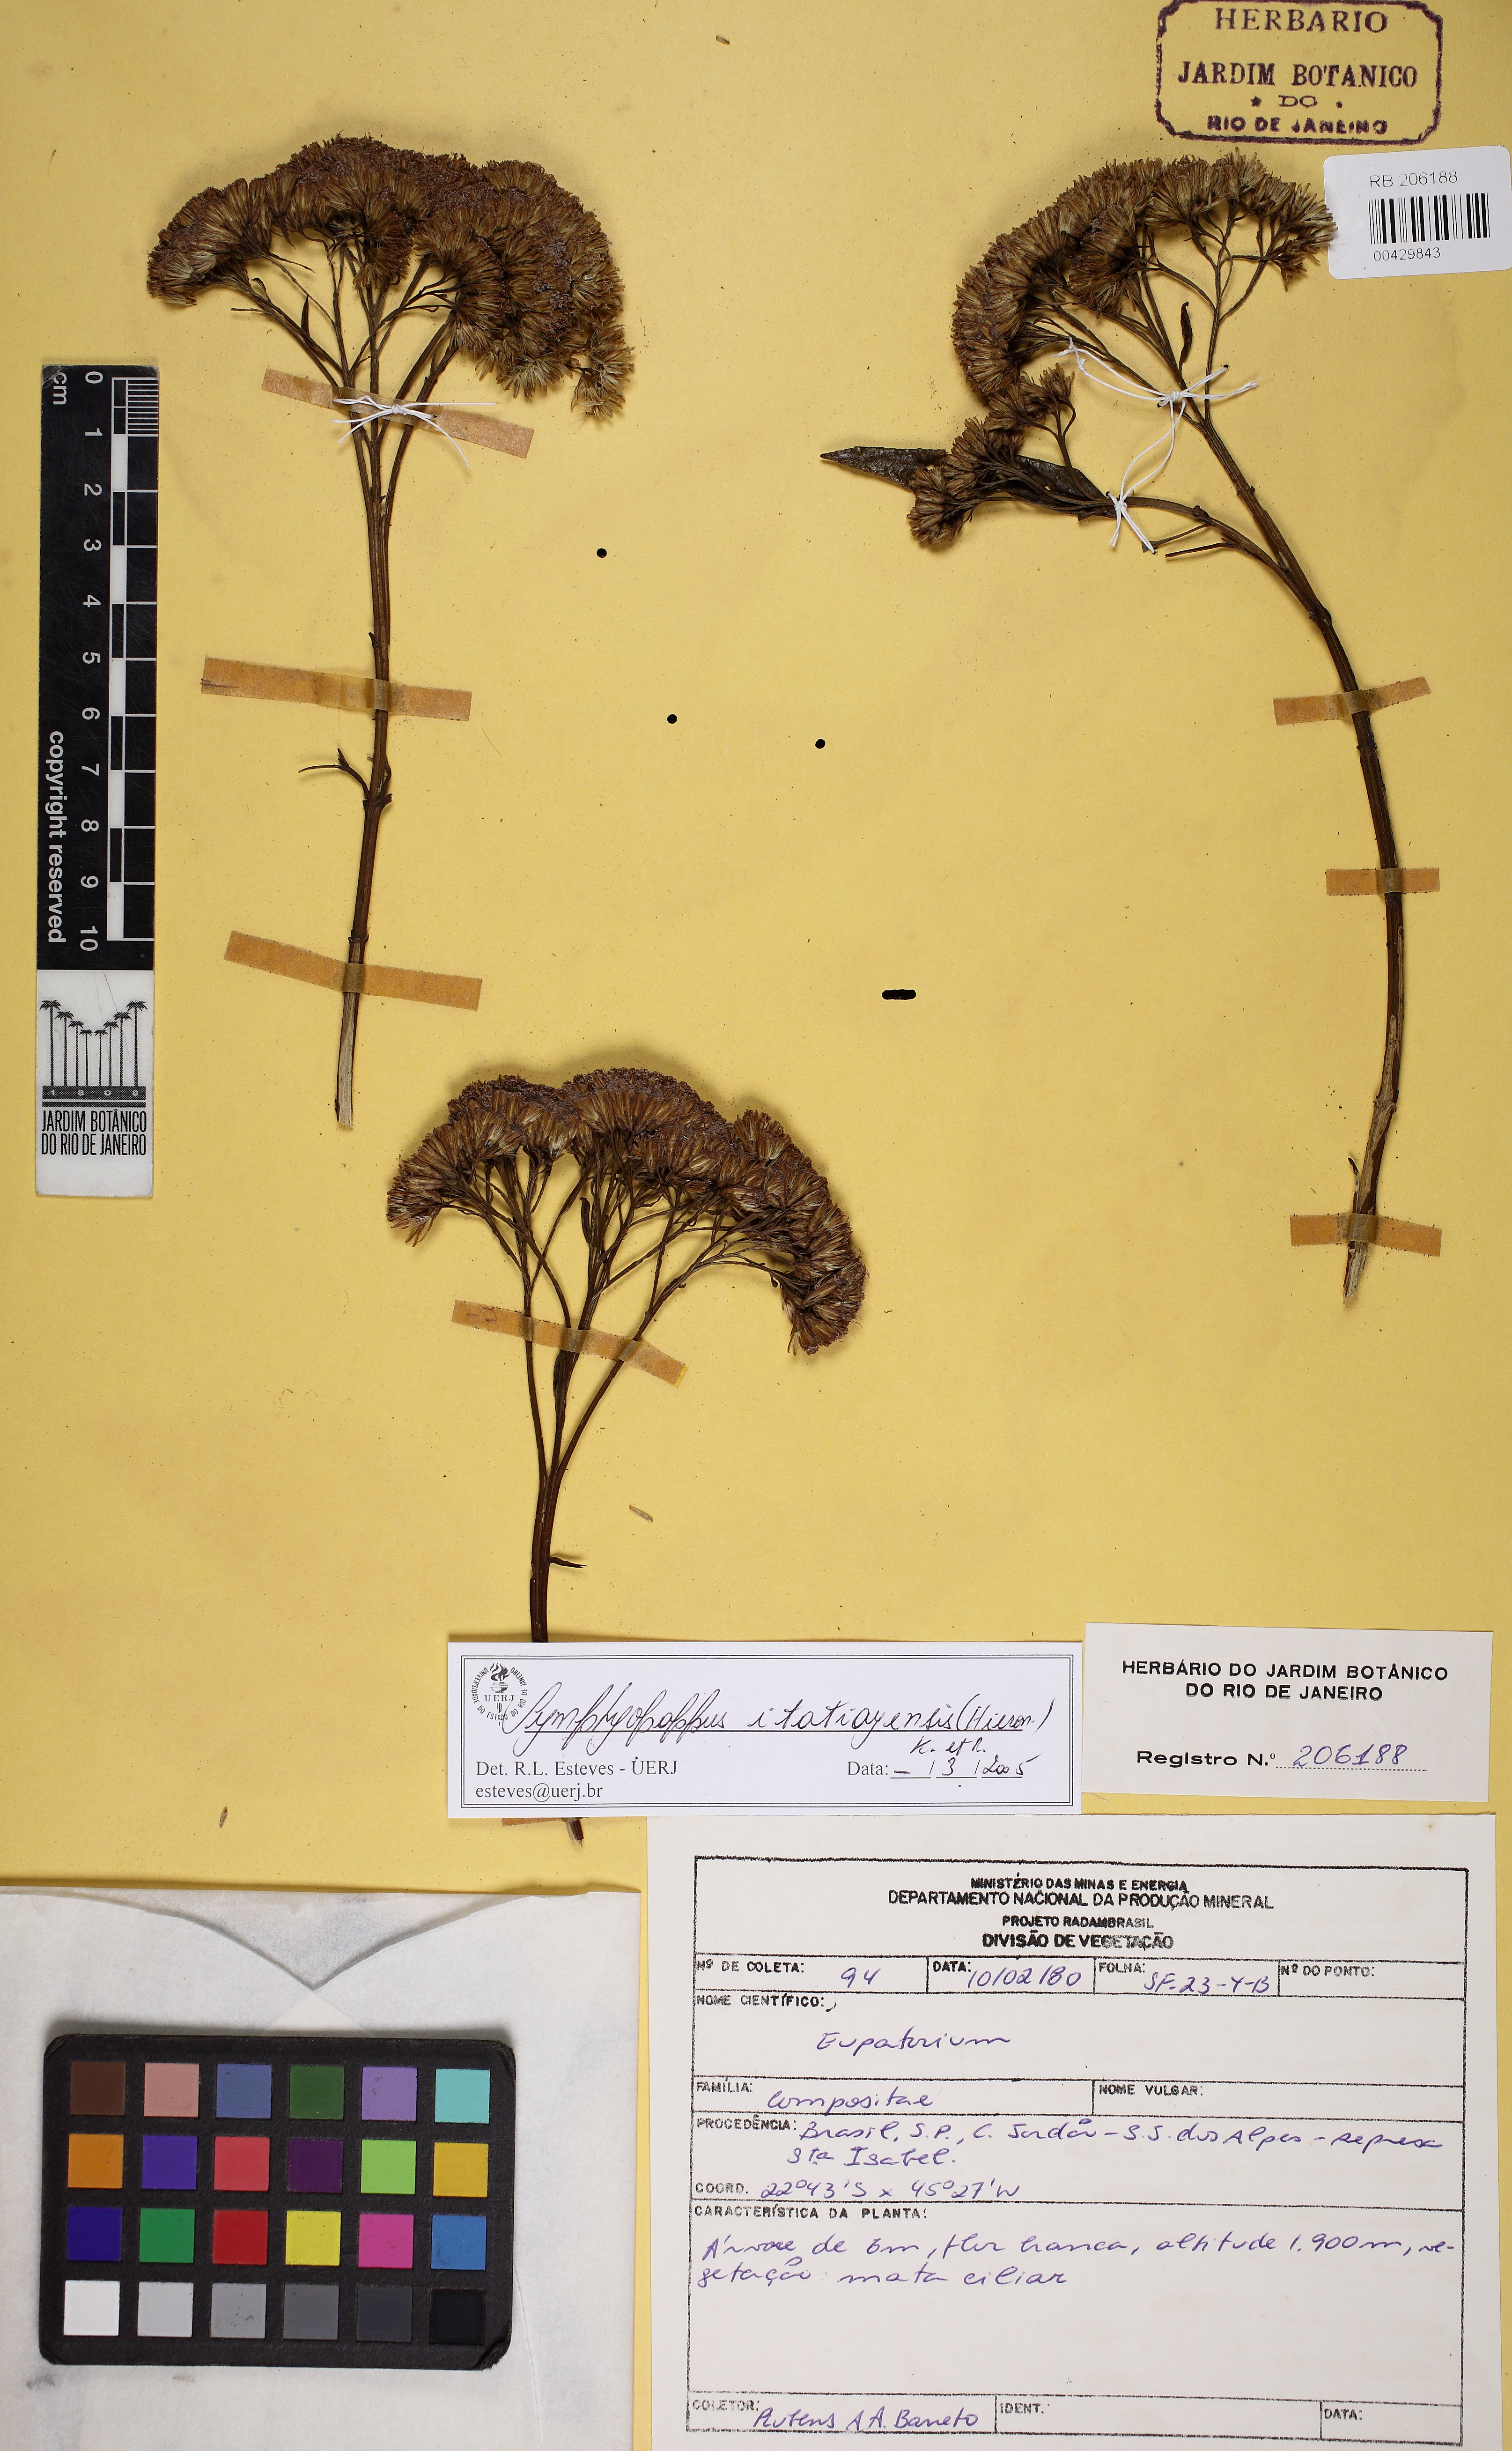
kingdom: Plantae
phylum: Tracheophyta
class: Magnoliopsida
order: Asterales
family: Asteraceae
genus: Symphyopappus
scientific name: Symphyopappus itatiayensis
